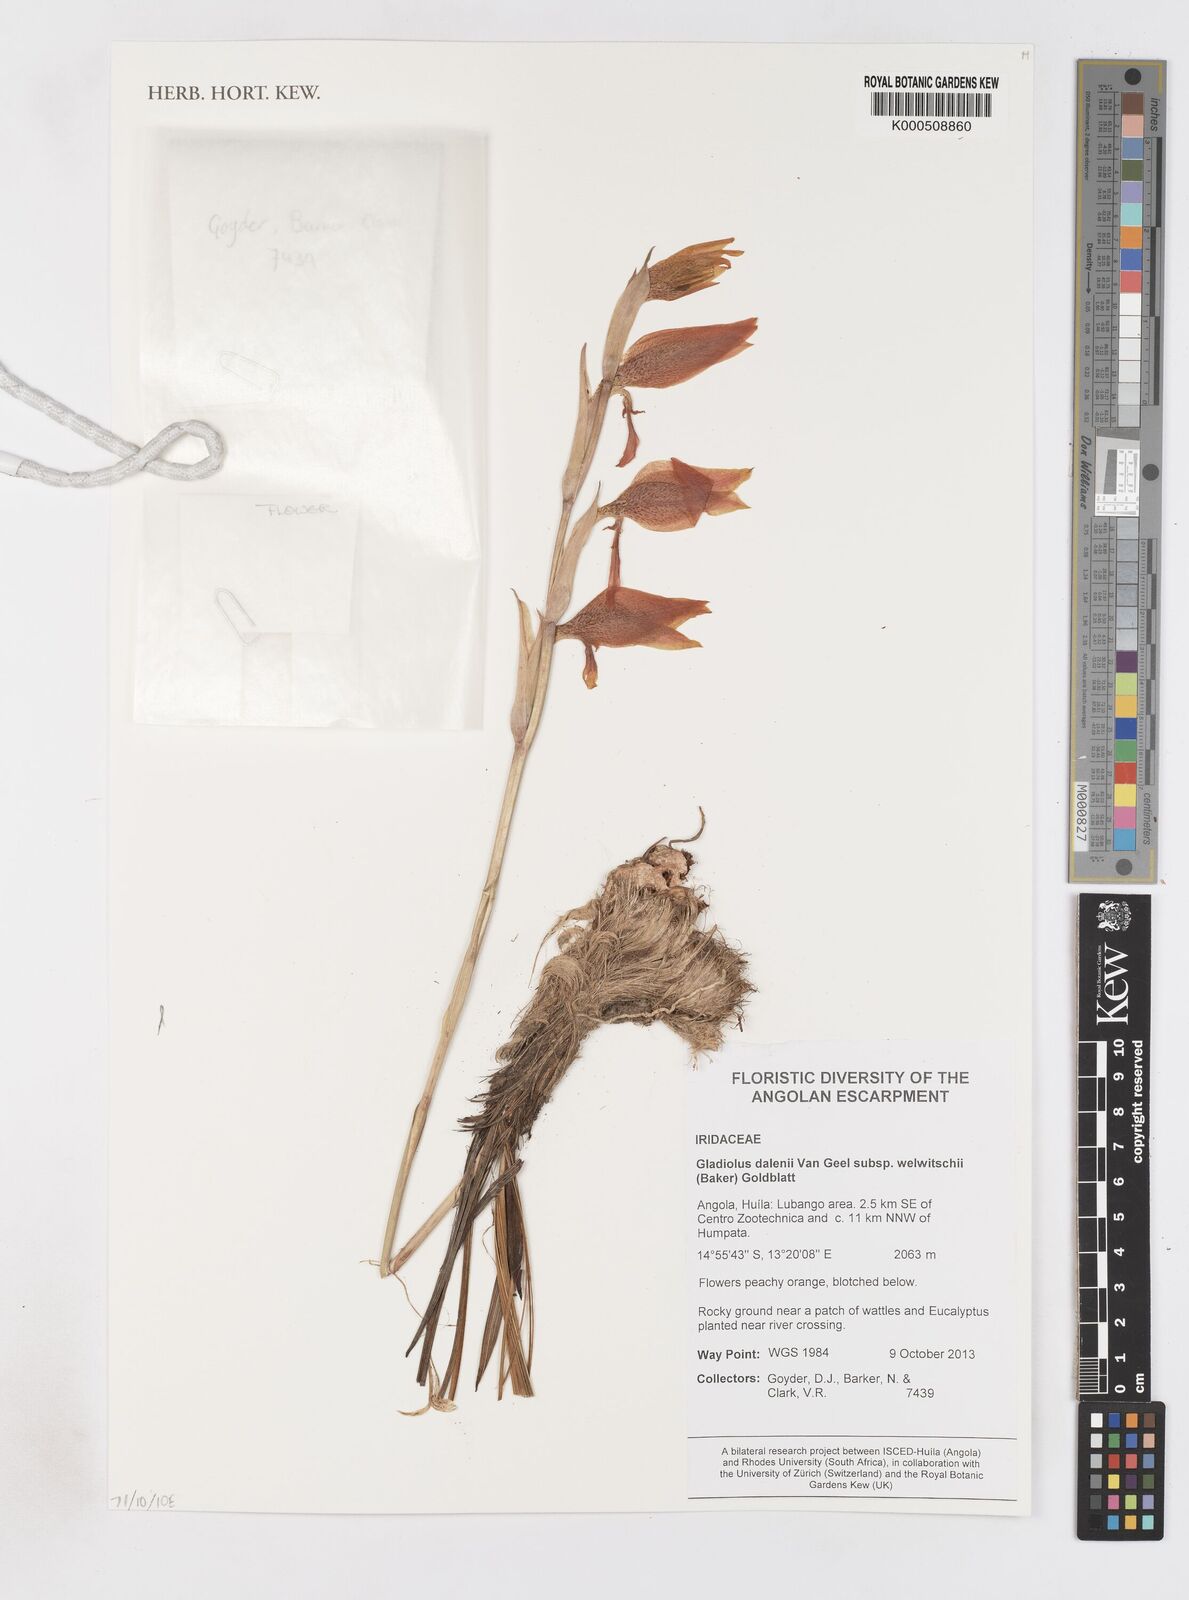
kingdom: Plantae
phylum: Tracheophyta
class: Liliopsida
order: Asparagales
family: Iridaceae
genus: Gladiolus
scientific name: Gladiolus dalenii
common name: Cornflag
